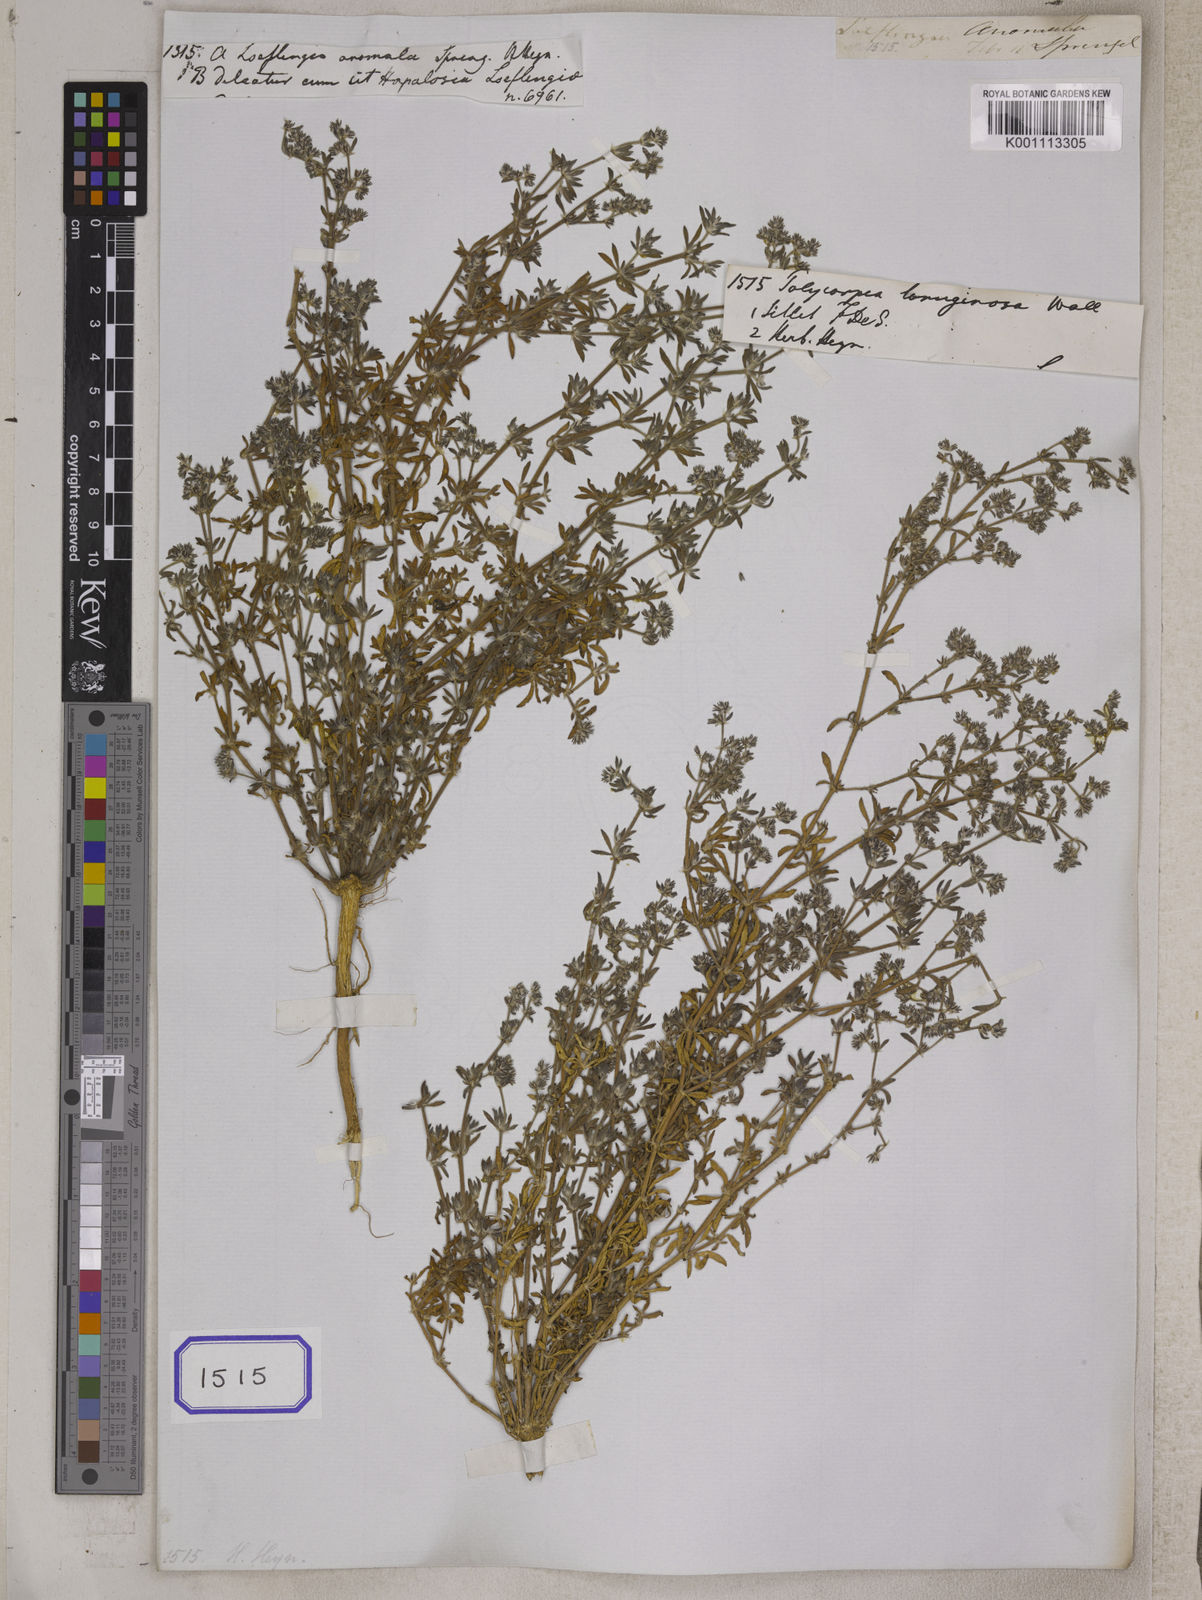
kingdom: Plantae
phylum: Tracheophyta
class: Magnoliopsida
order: Caryophyllales
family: Caryophyllaceae
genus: Polycarpon
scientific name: Polycarpon tetraphyllum
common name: Four-leaved all-seed
